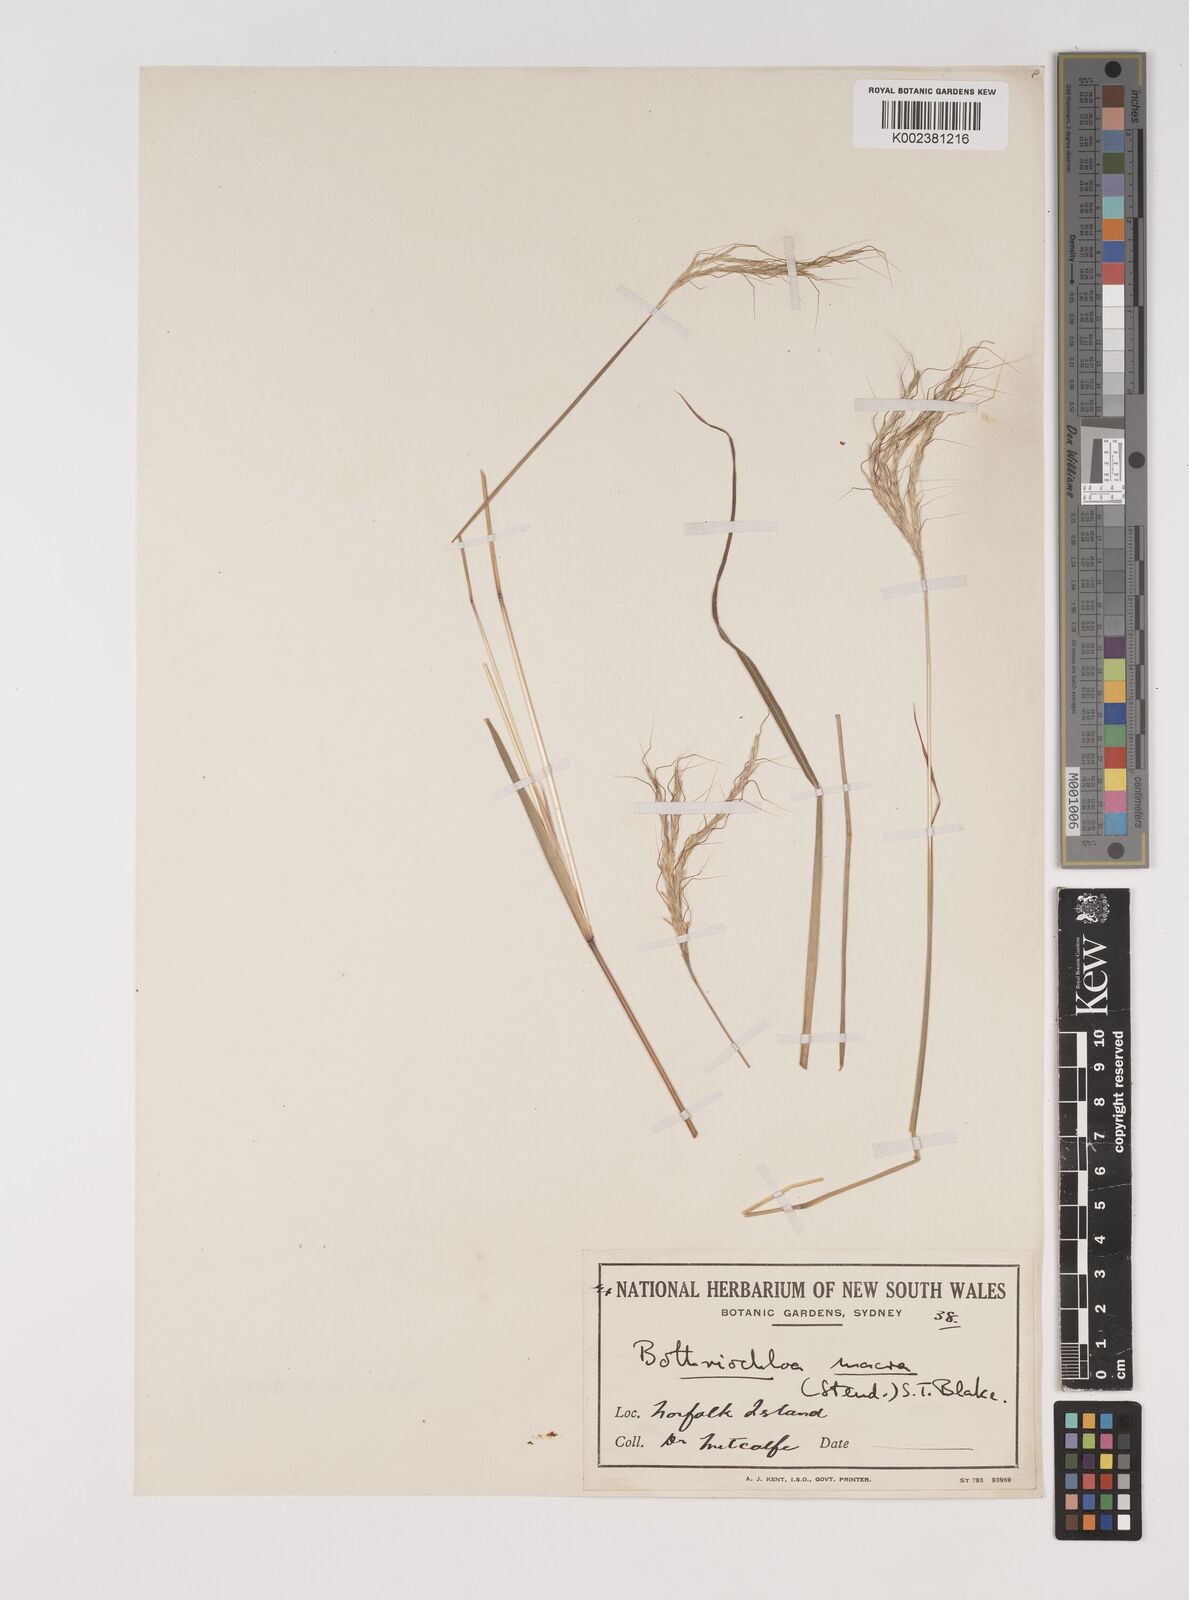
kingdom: Plantae
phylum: Tracheophyta
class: Liliopsida
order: Poales
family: Poaceae
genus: Bothriochloa
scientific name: Bothriochloa macra
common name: Pitted beard grass
